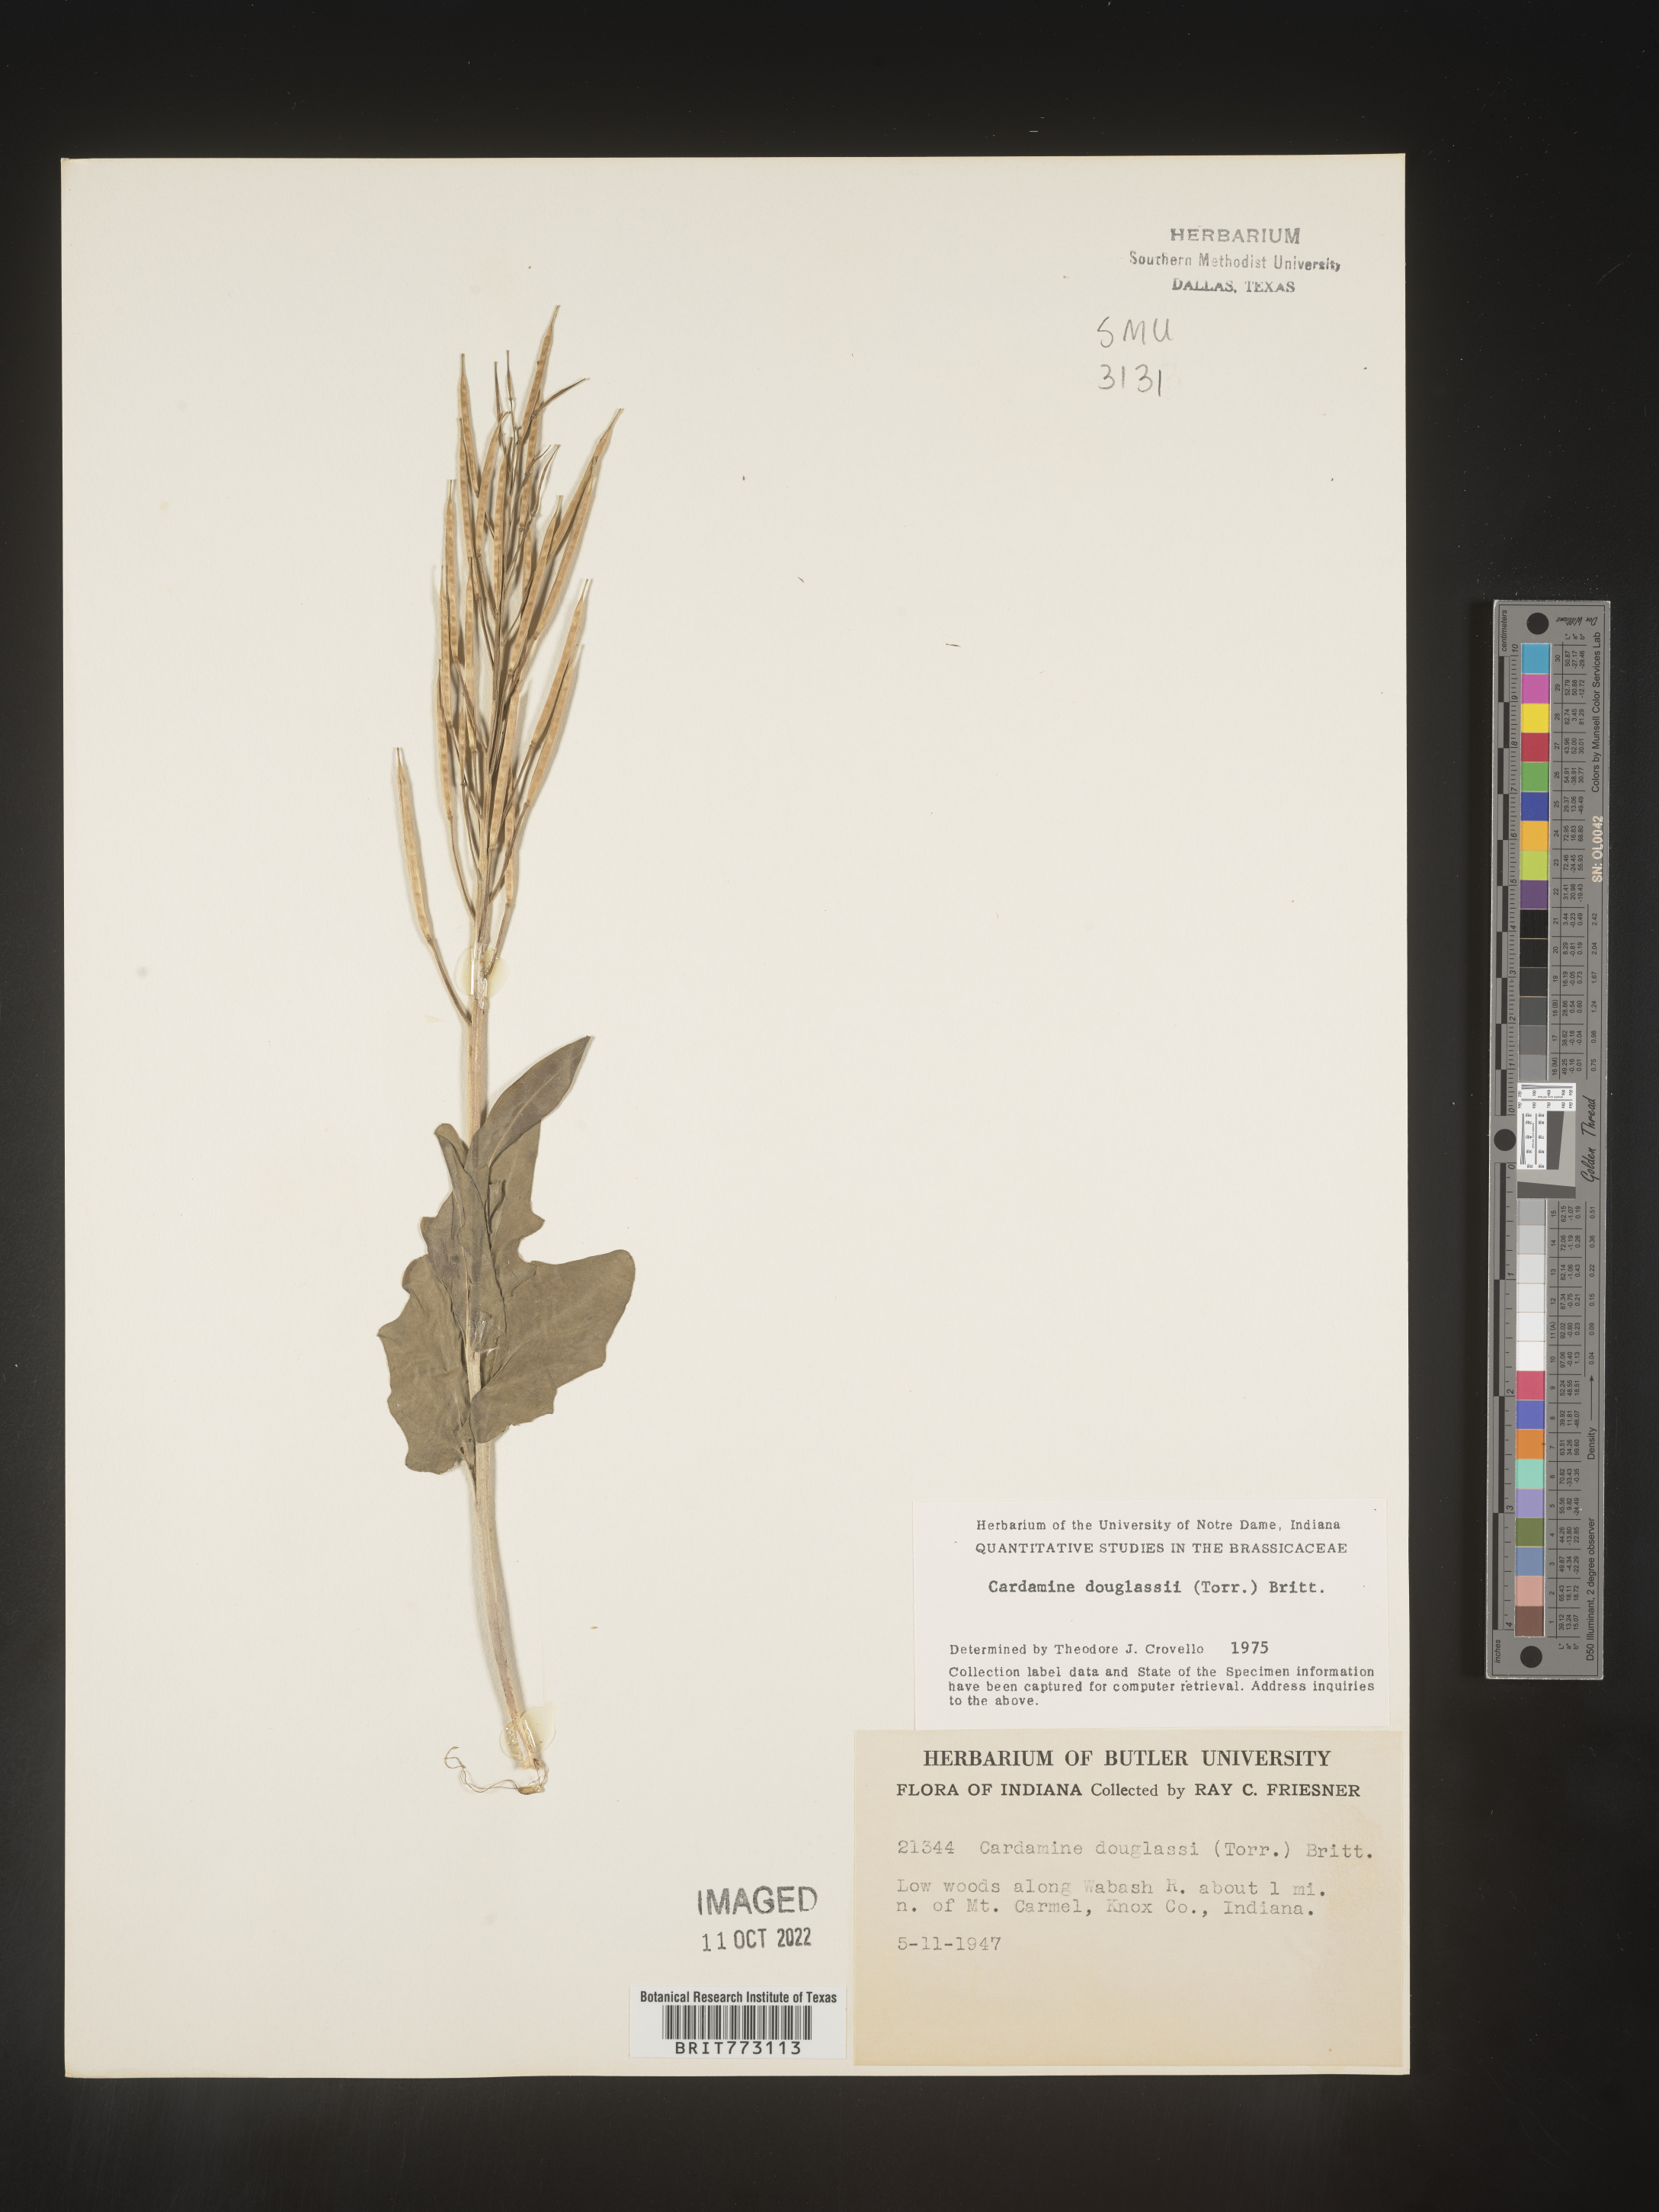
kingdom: Plantae
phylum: Tracheophyta
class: Magnoliopsida
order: Brassicales
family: Brassicaceae
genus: Cardamine
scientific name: Cardamine
